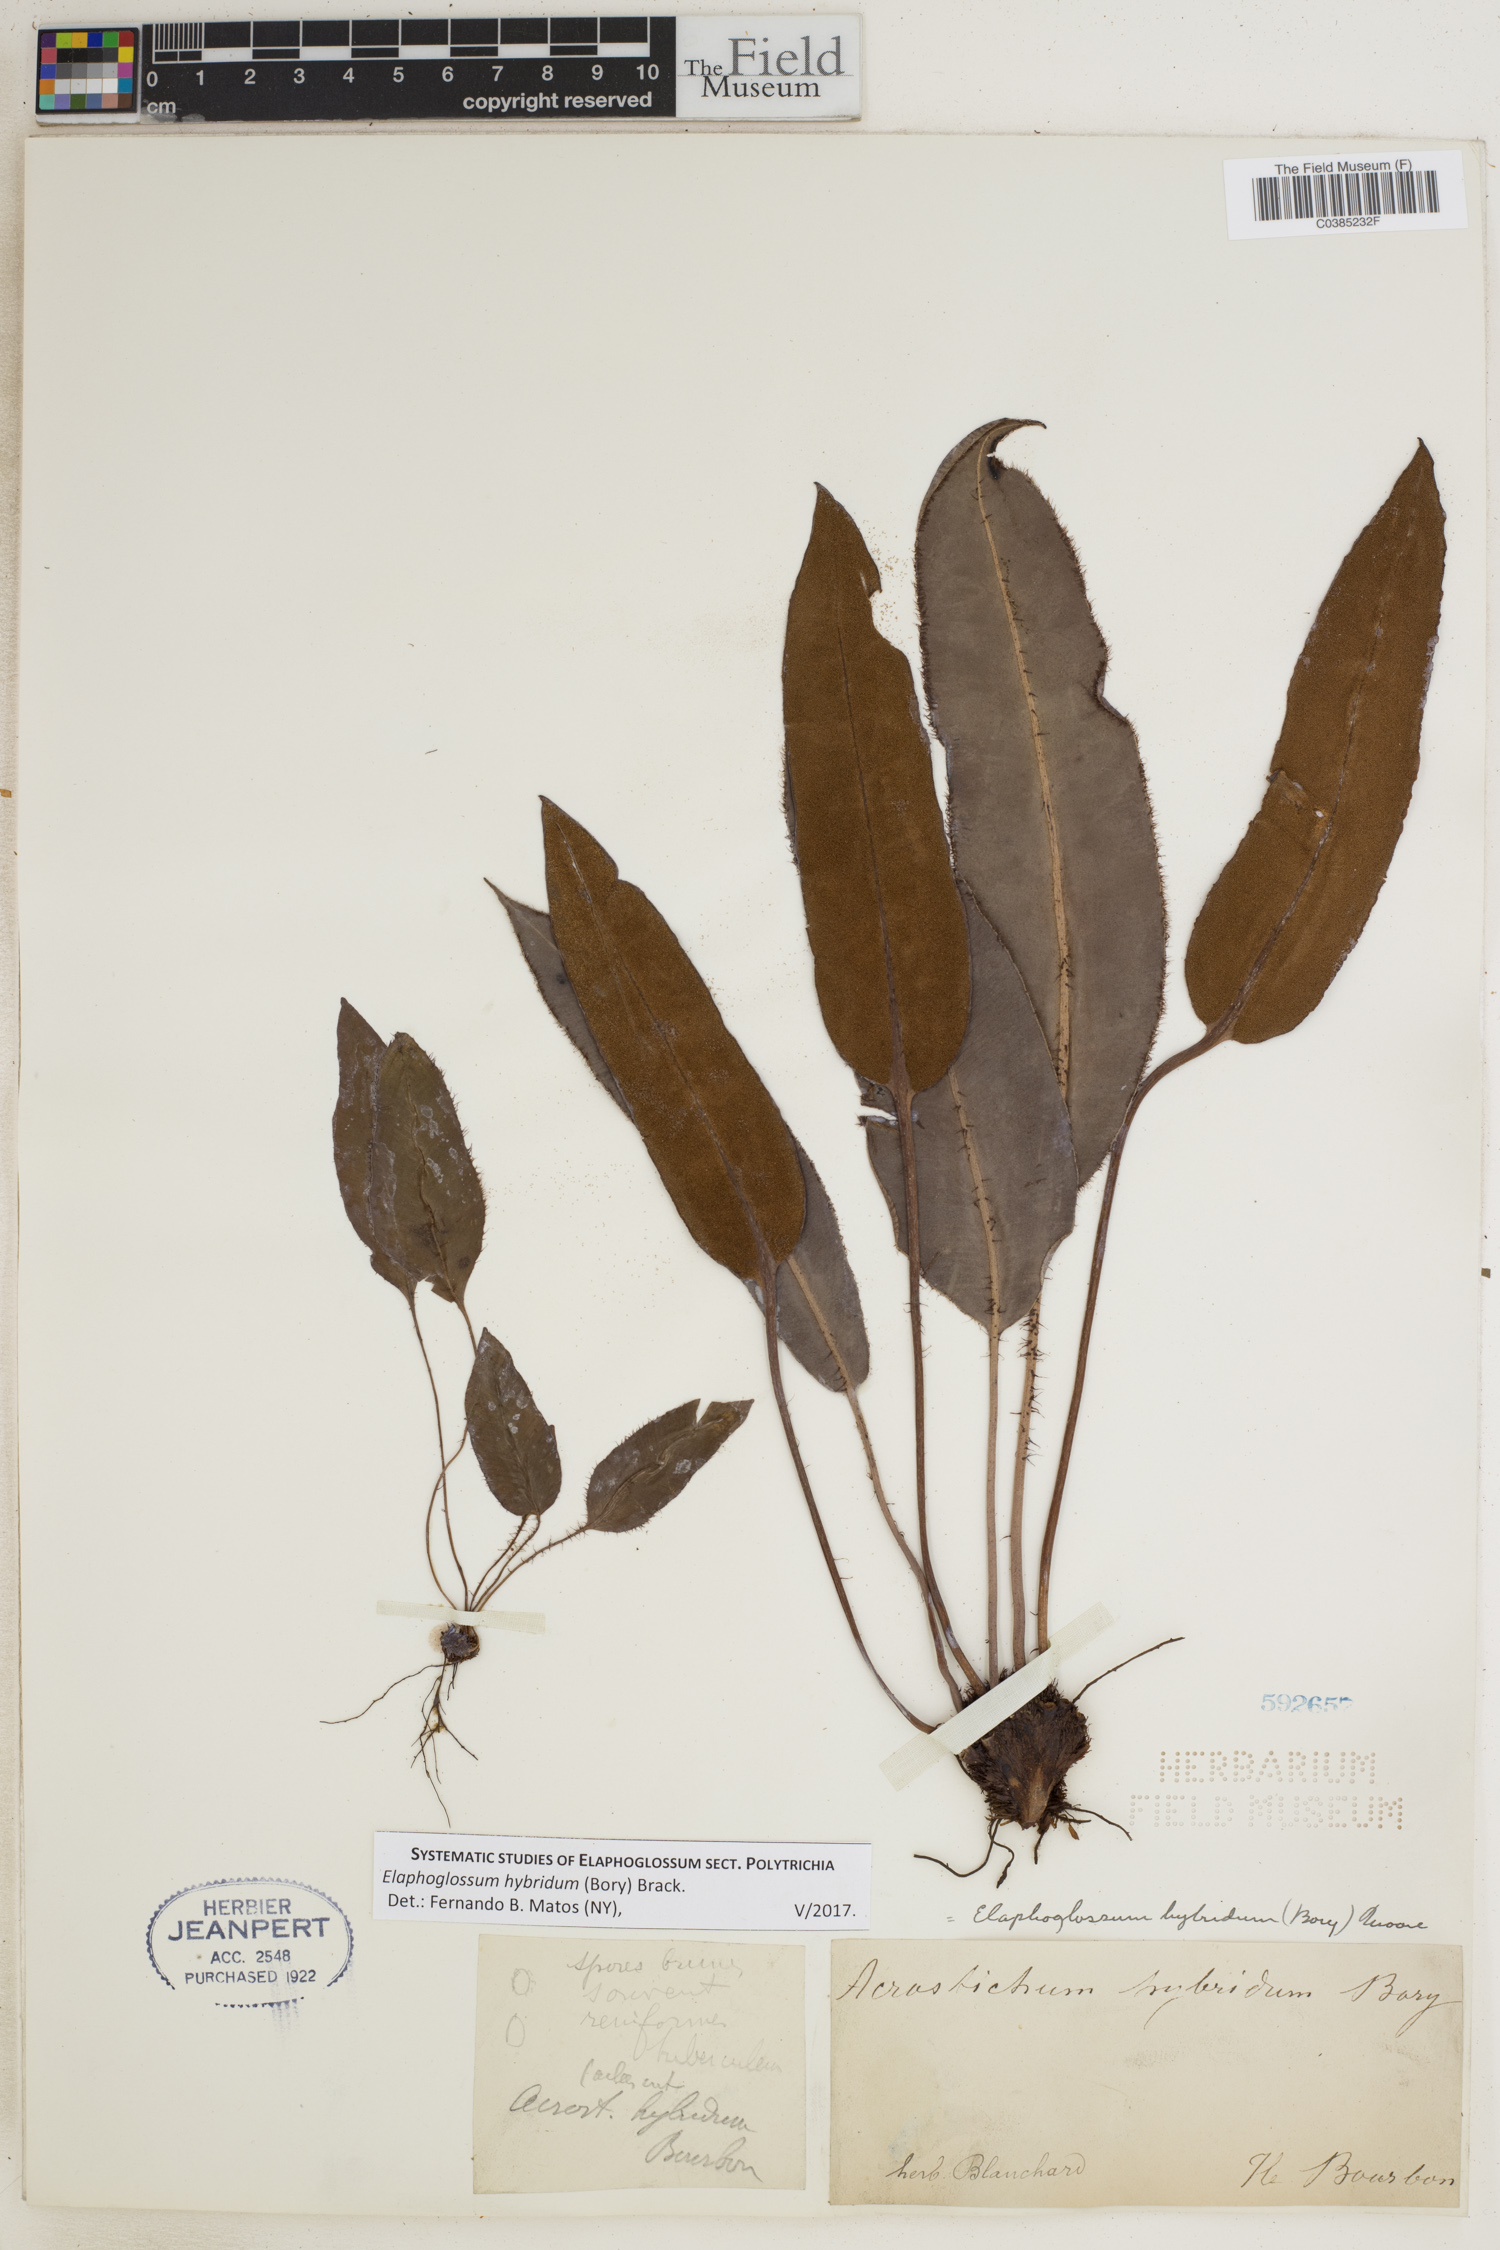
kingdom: Plantae
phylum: Tracheophyta
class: Polypodiopsida
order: Polypodiales
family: Dryopteridaceae
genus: Elaphoglossum
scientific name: Elaphoglossum hybridum
